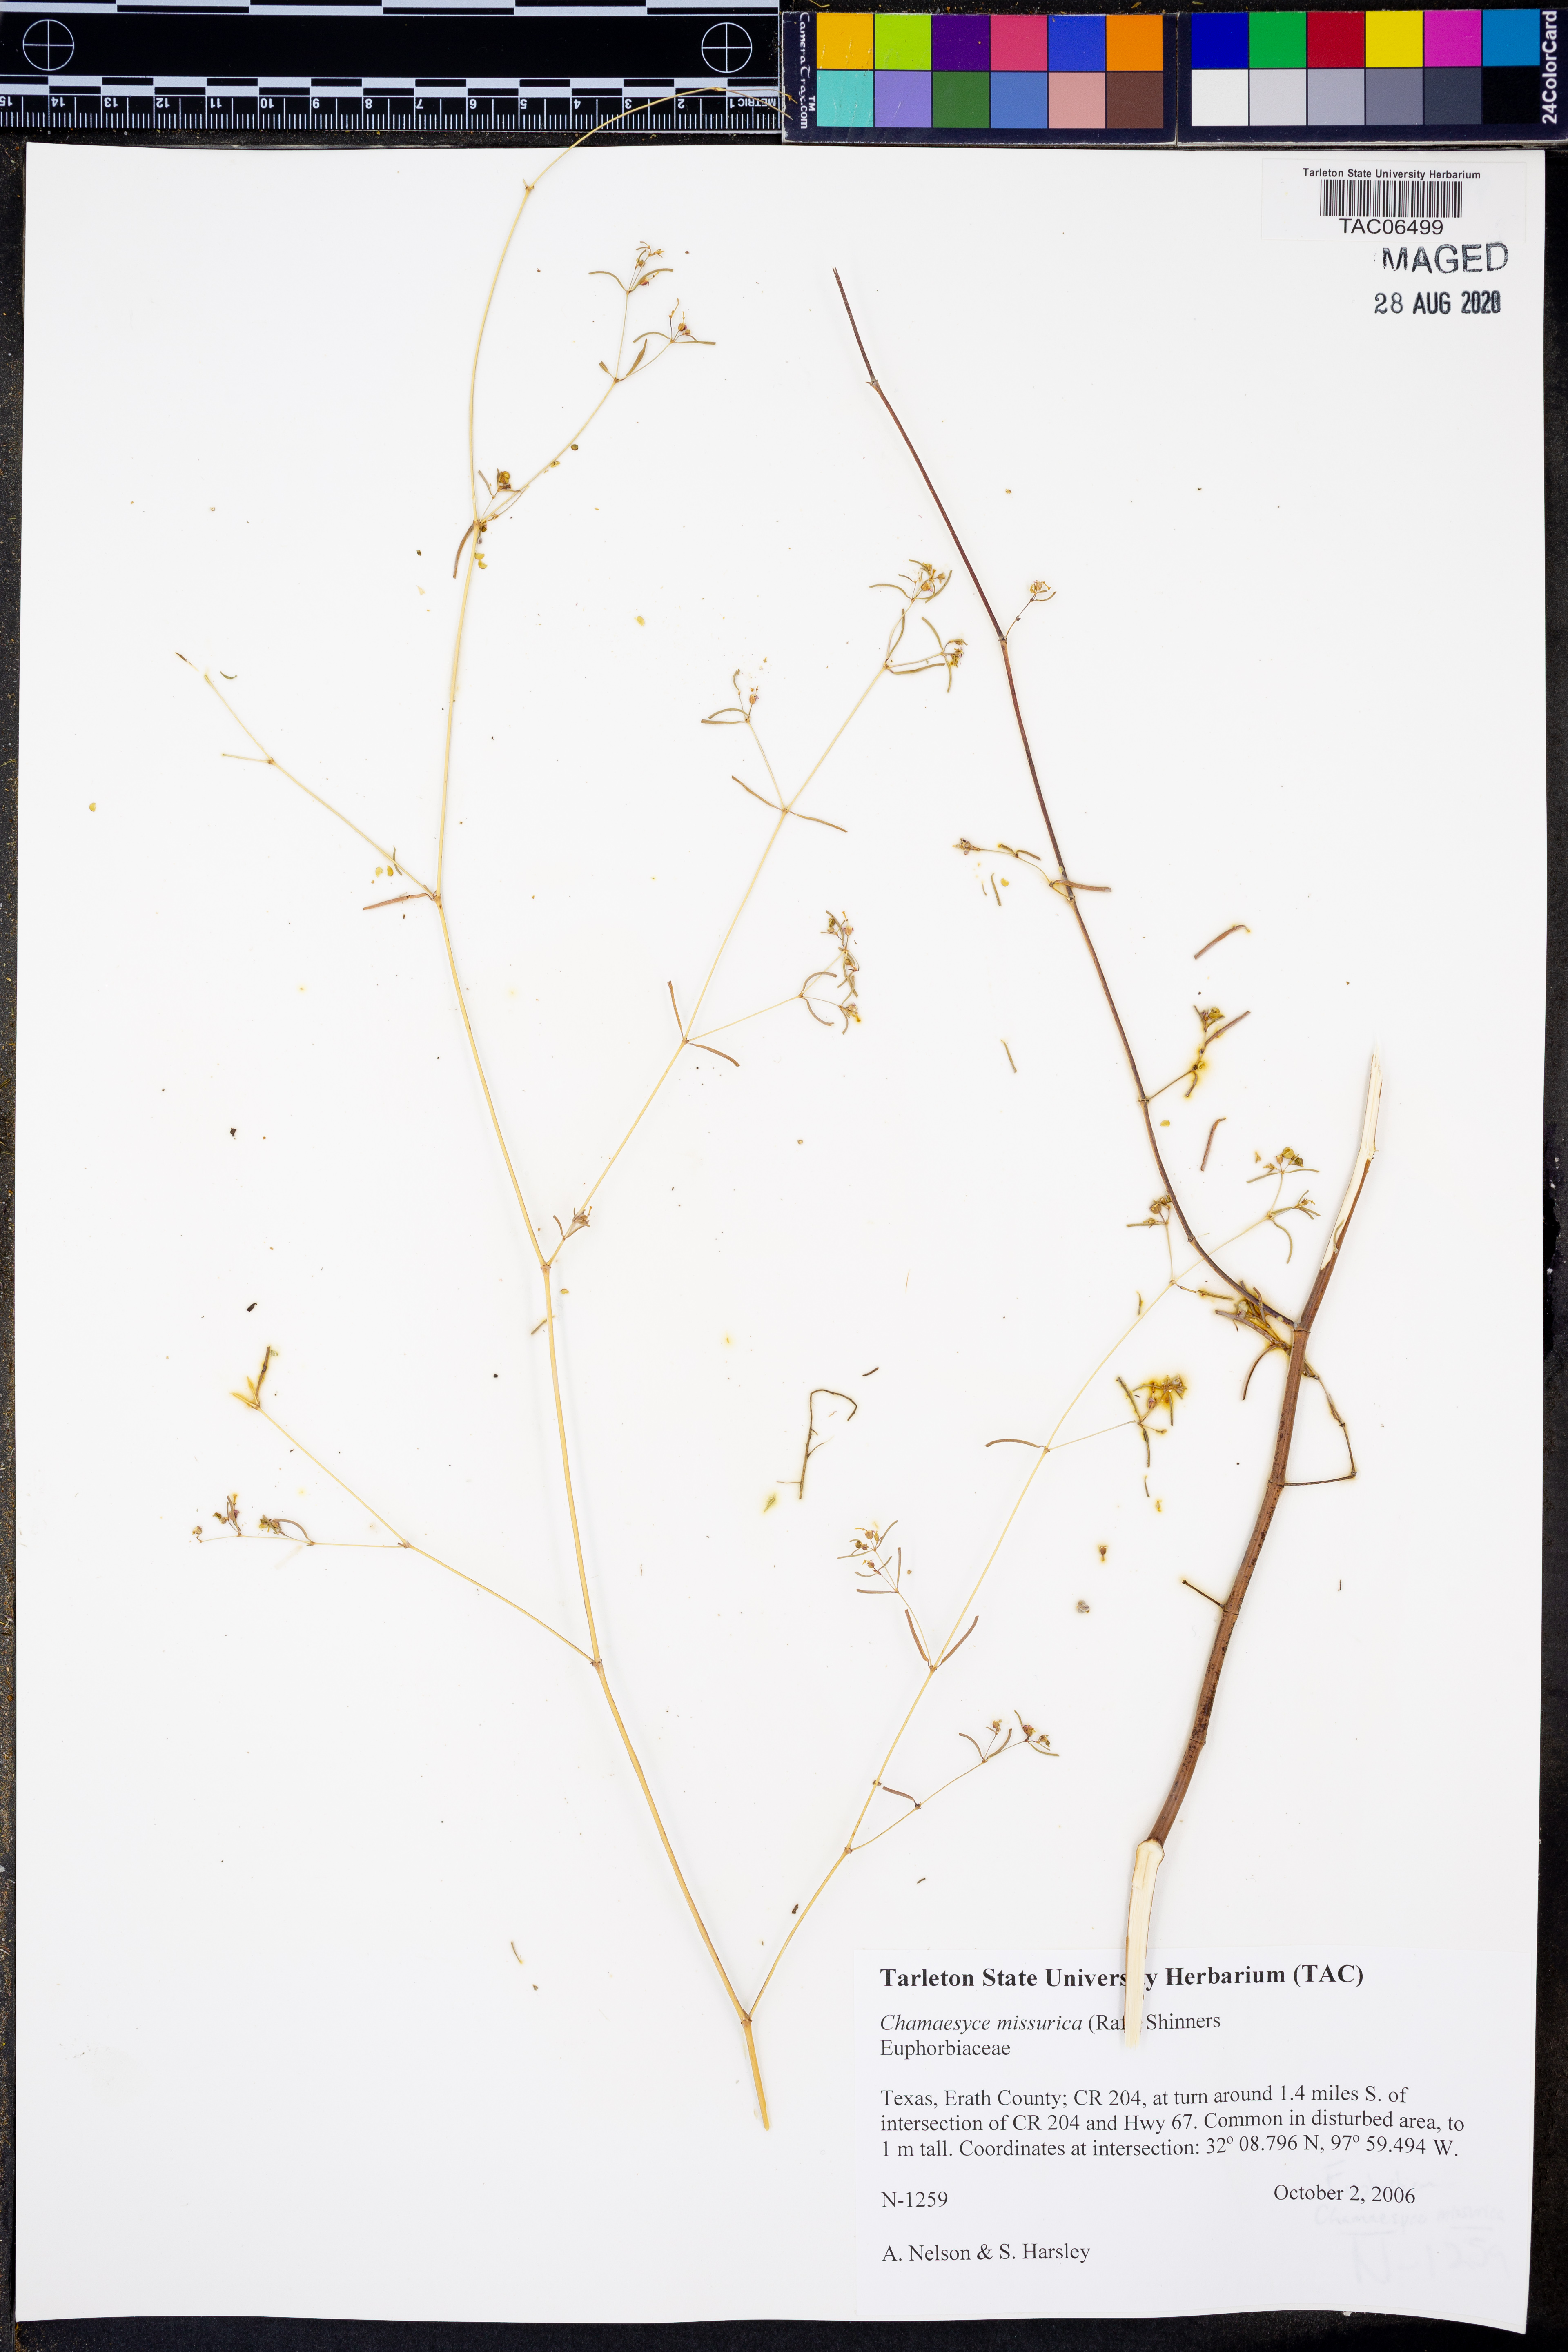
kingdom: Plantae
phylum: Tracheophyta
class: Magnoliopsida
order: Malpighiales
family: Euphorbiaceae
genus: Euphorbia
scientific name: Euphorbia missurica
